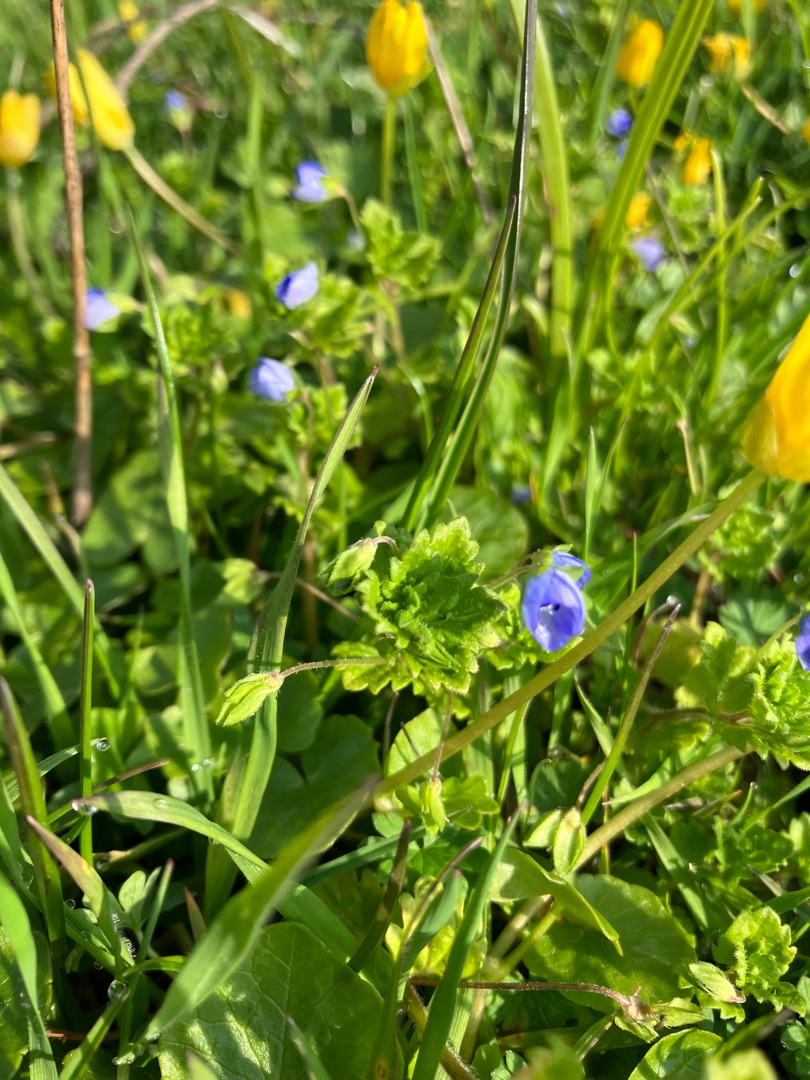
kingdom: Plantae
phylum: Tracheophyta
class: Magnoliopsida
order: Lamiales
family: Plantaginaceae
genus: Veronica
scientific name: Veronica persica
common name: Storkronet ærenpris
